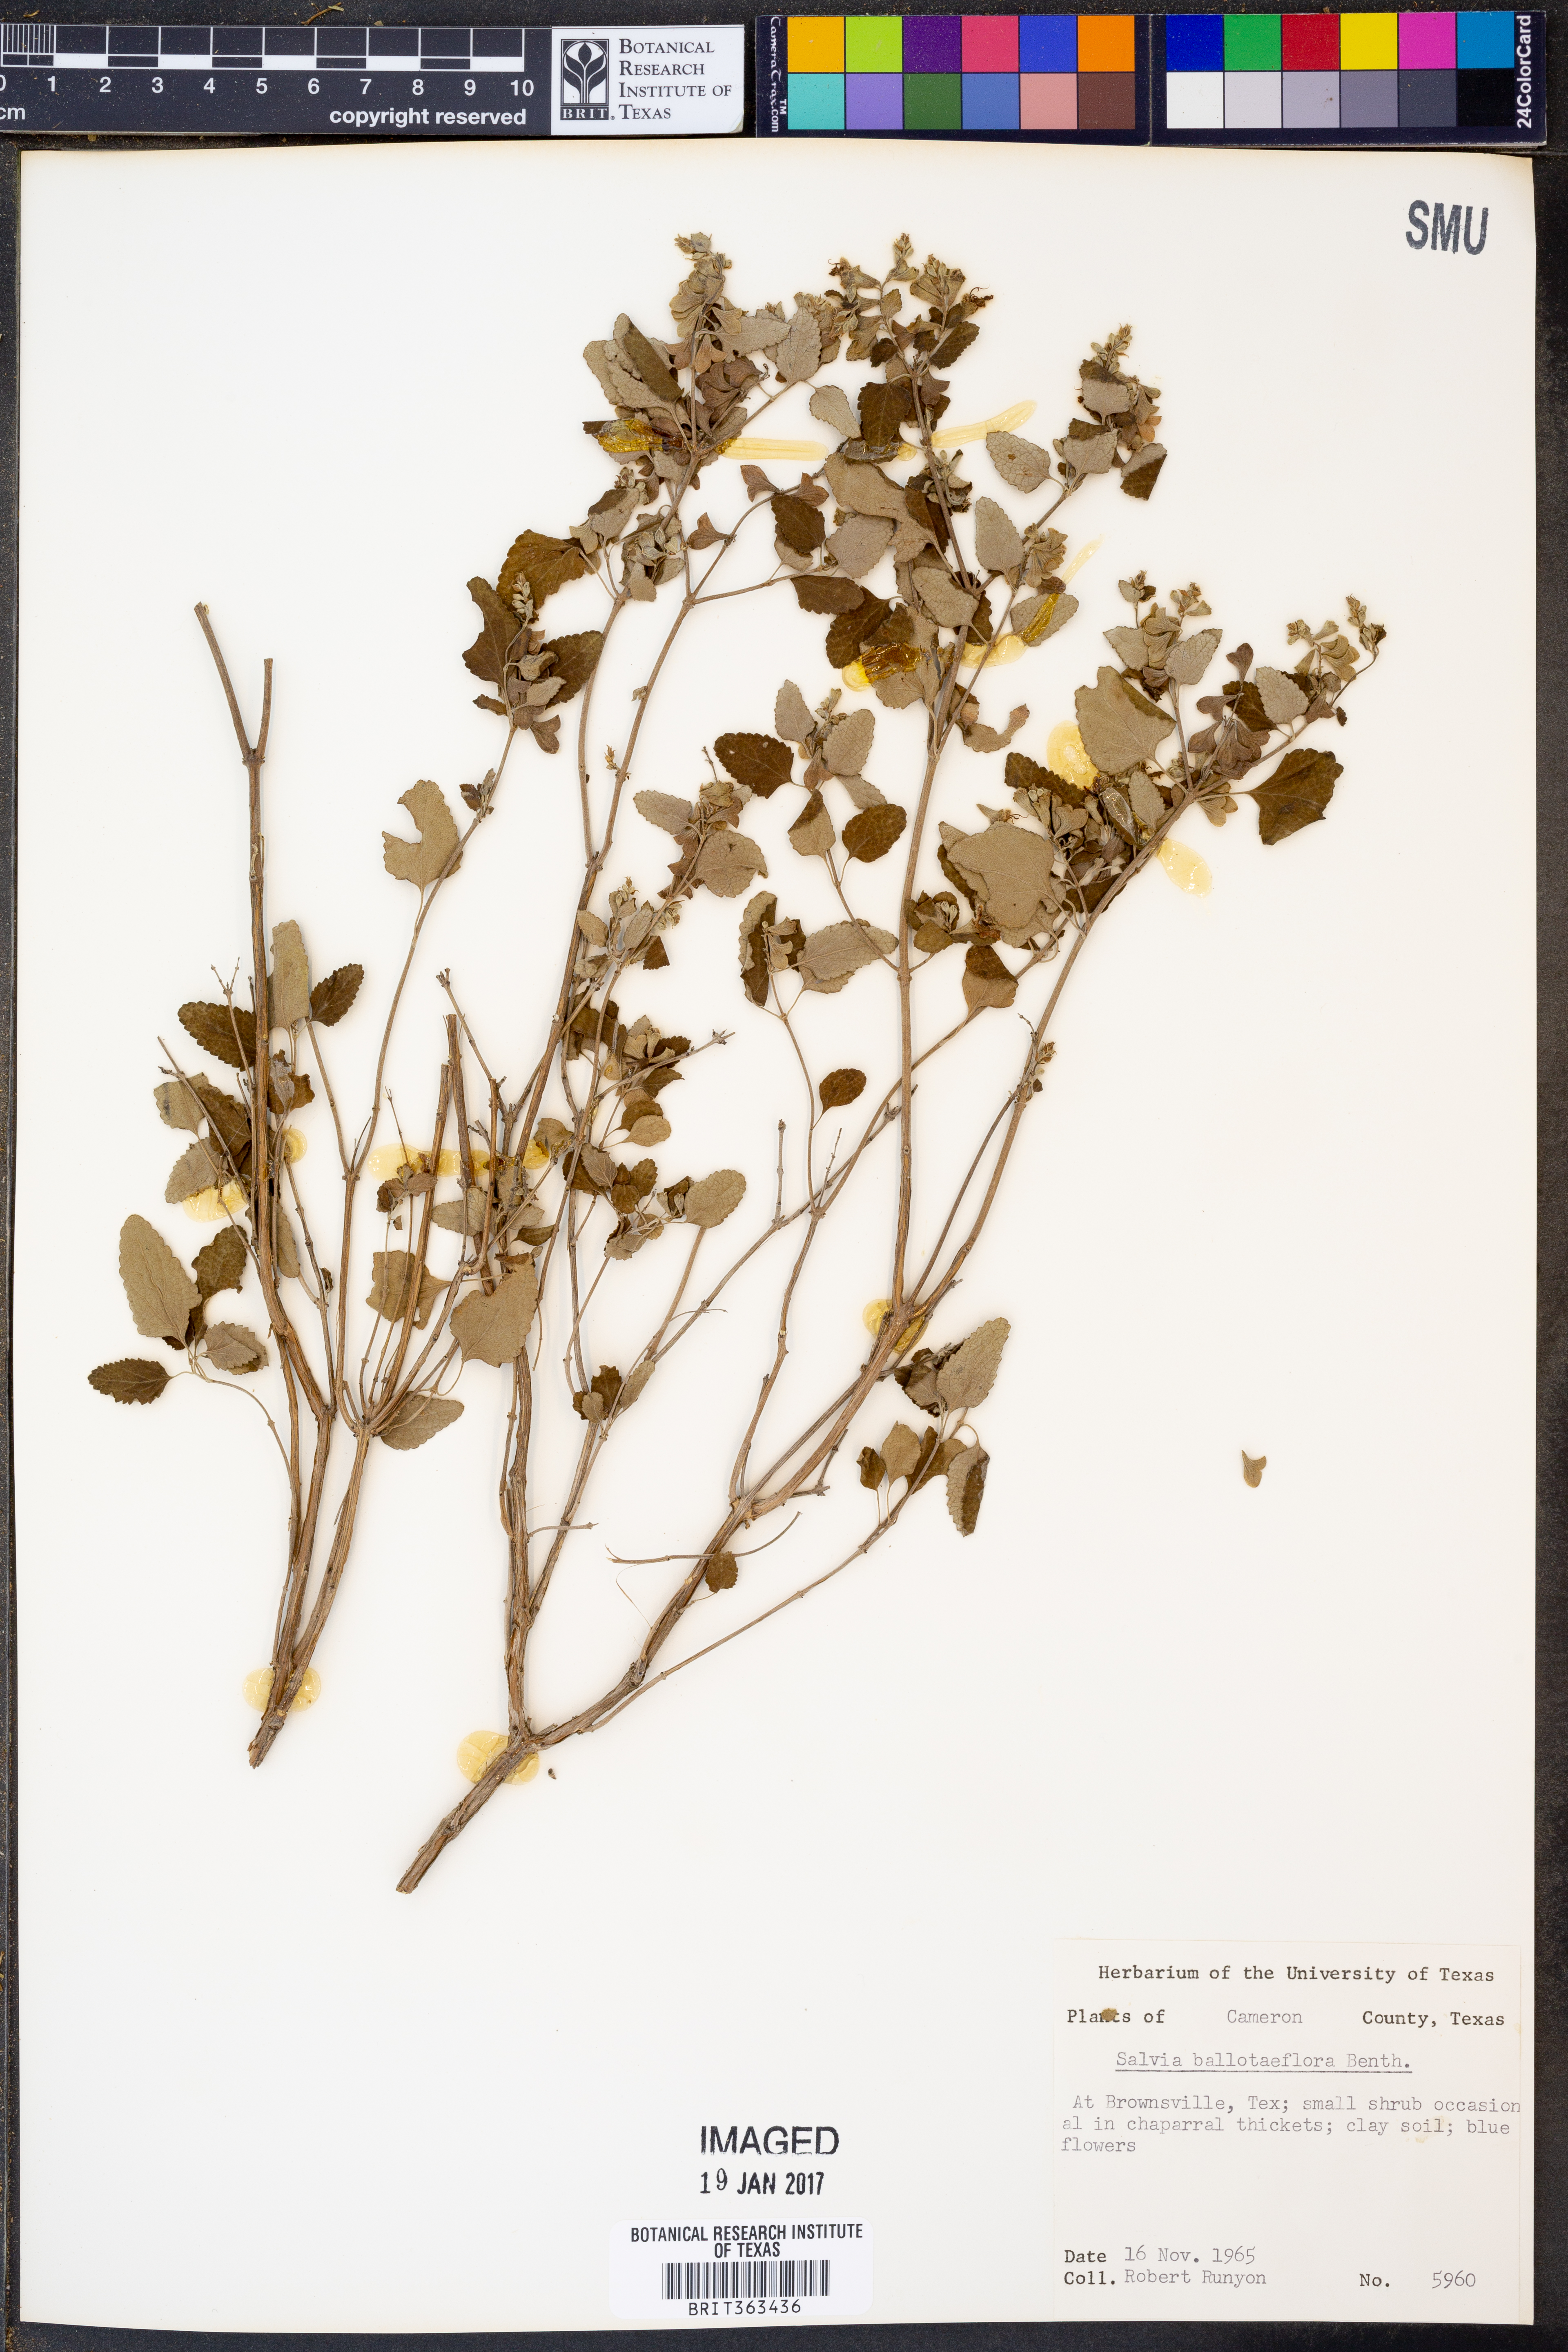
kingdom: Plantae
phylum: Tracheophyta
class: Magnoliopsida
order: Lamiales
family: Lamiaceae
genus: Salvia
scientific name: Salvia ballotiflora
